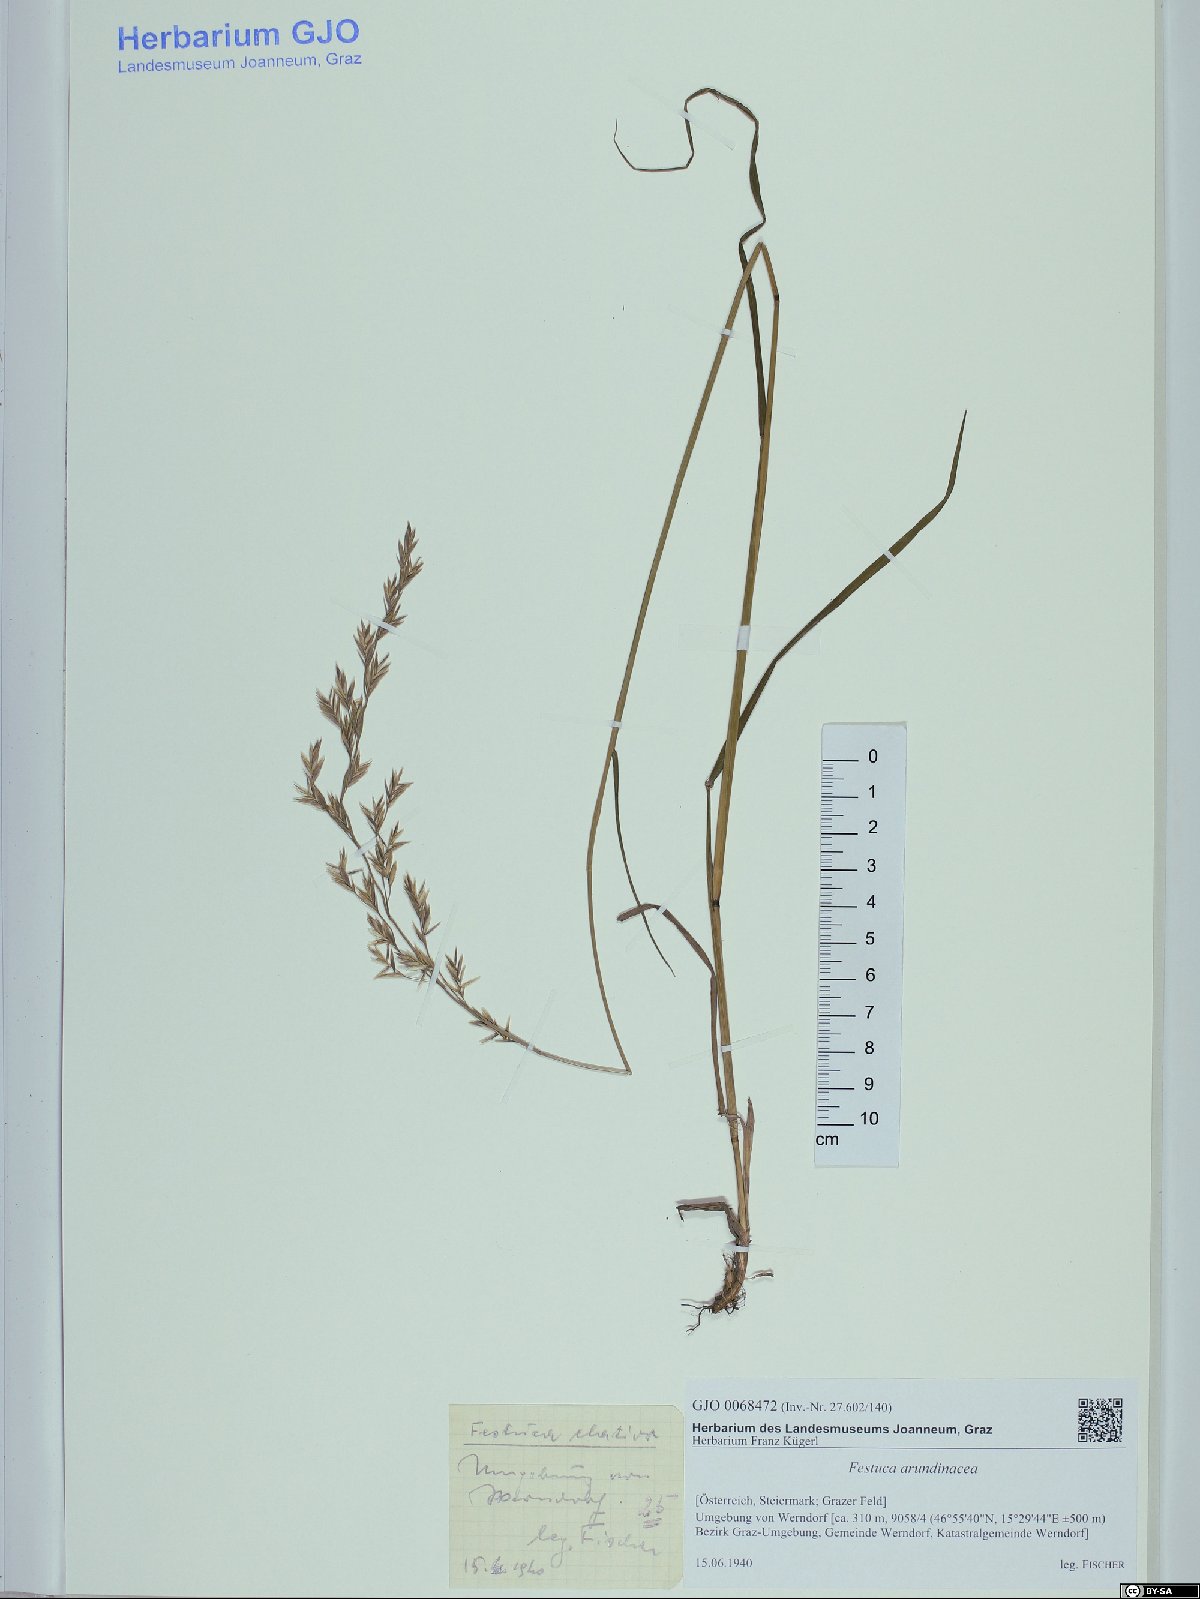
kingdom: Plantae
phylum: Tracheophyta
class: Liliopsida
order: Poales
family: Poaceae
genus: Lolium
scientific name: Lolium arundinaceum
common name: Reed fescue
